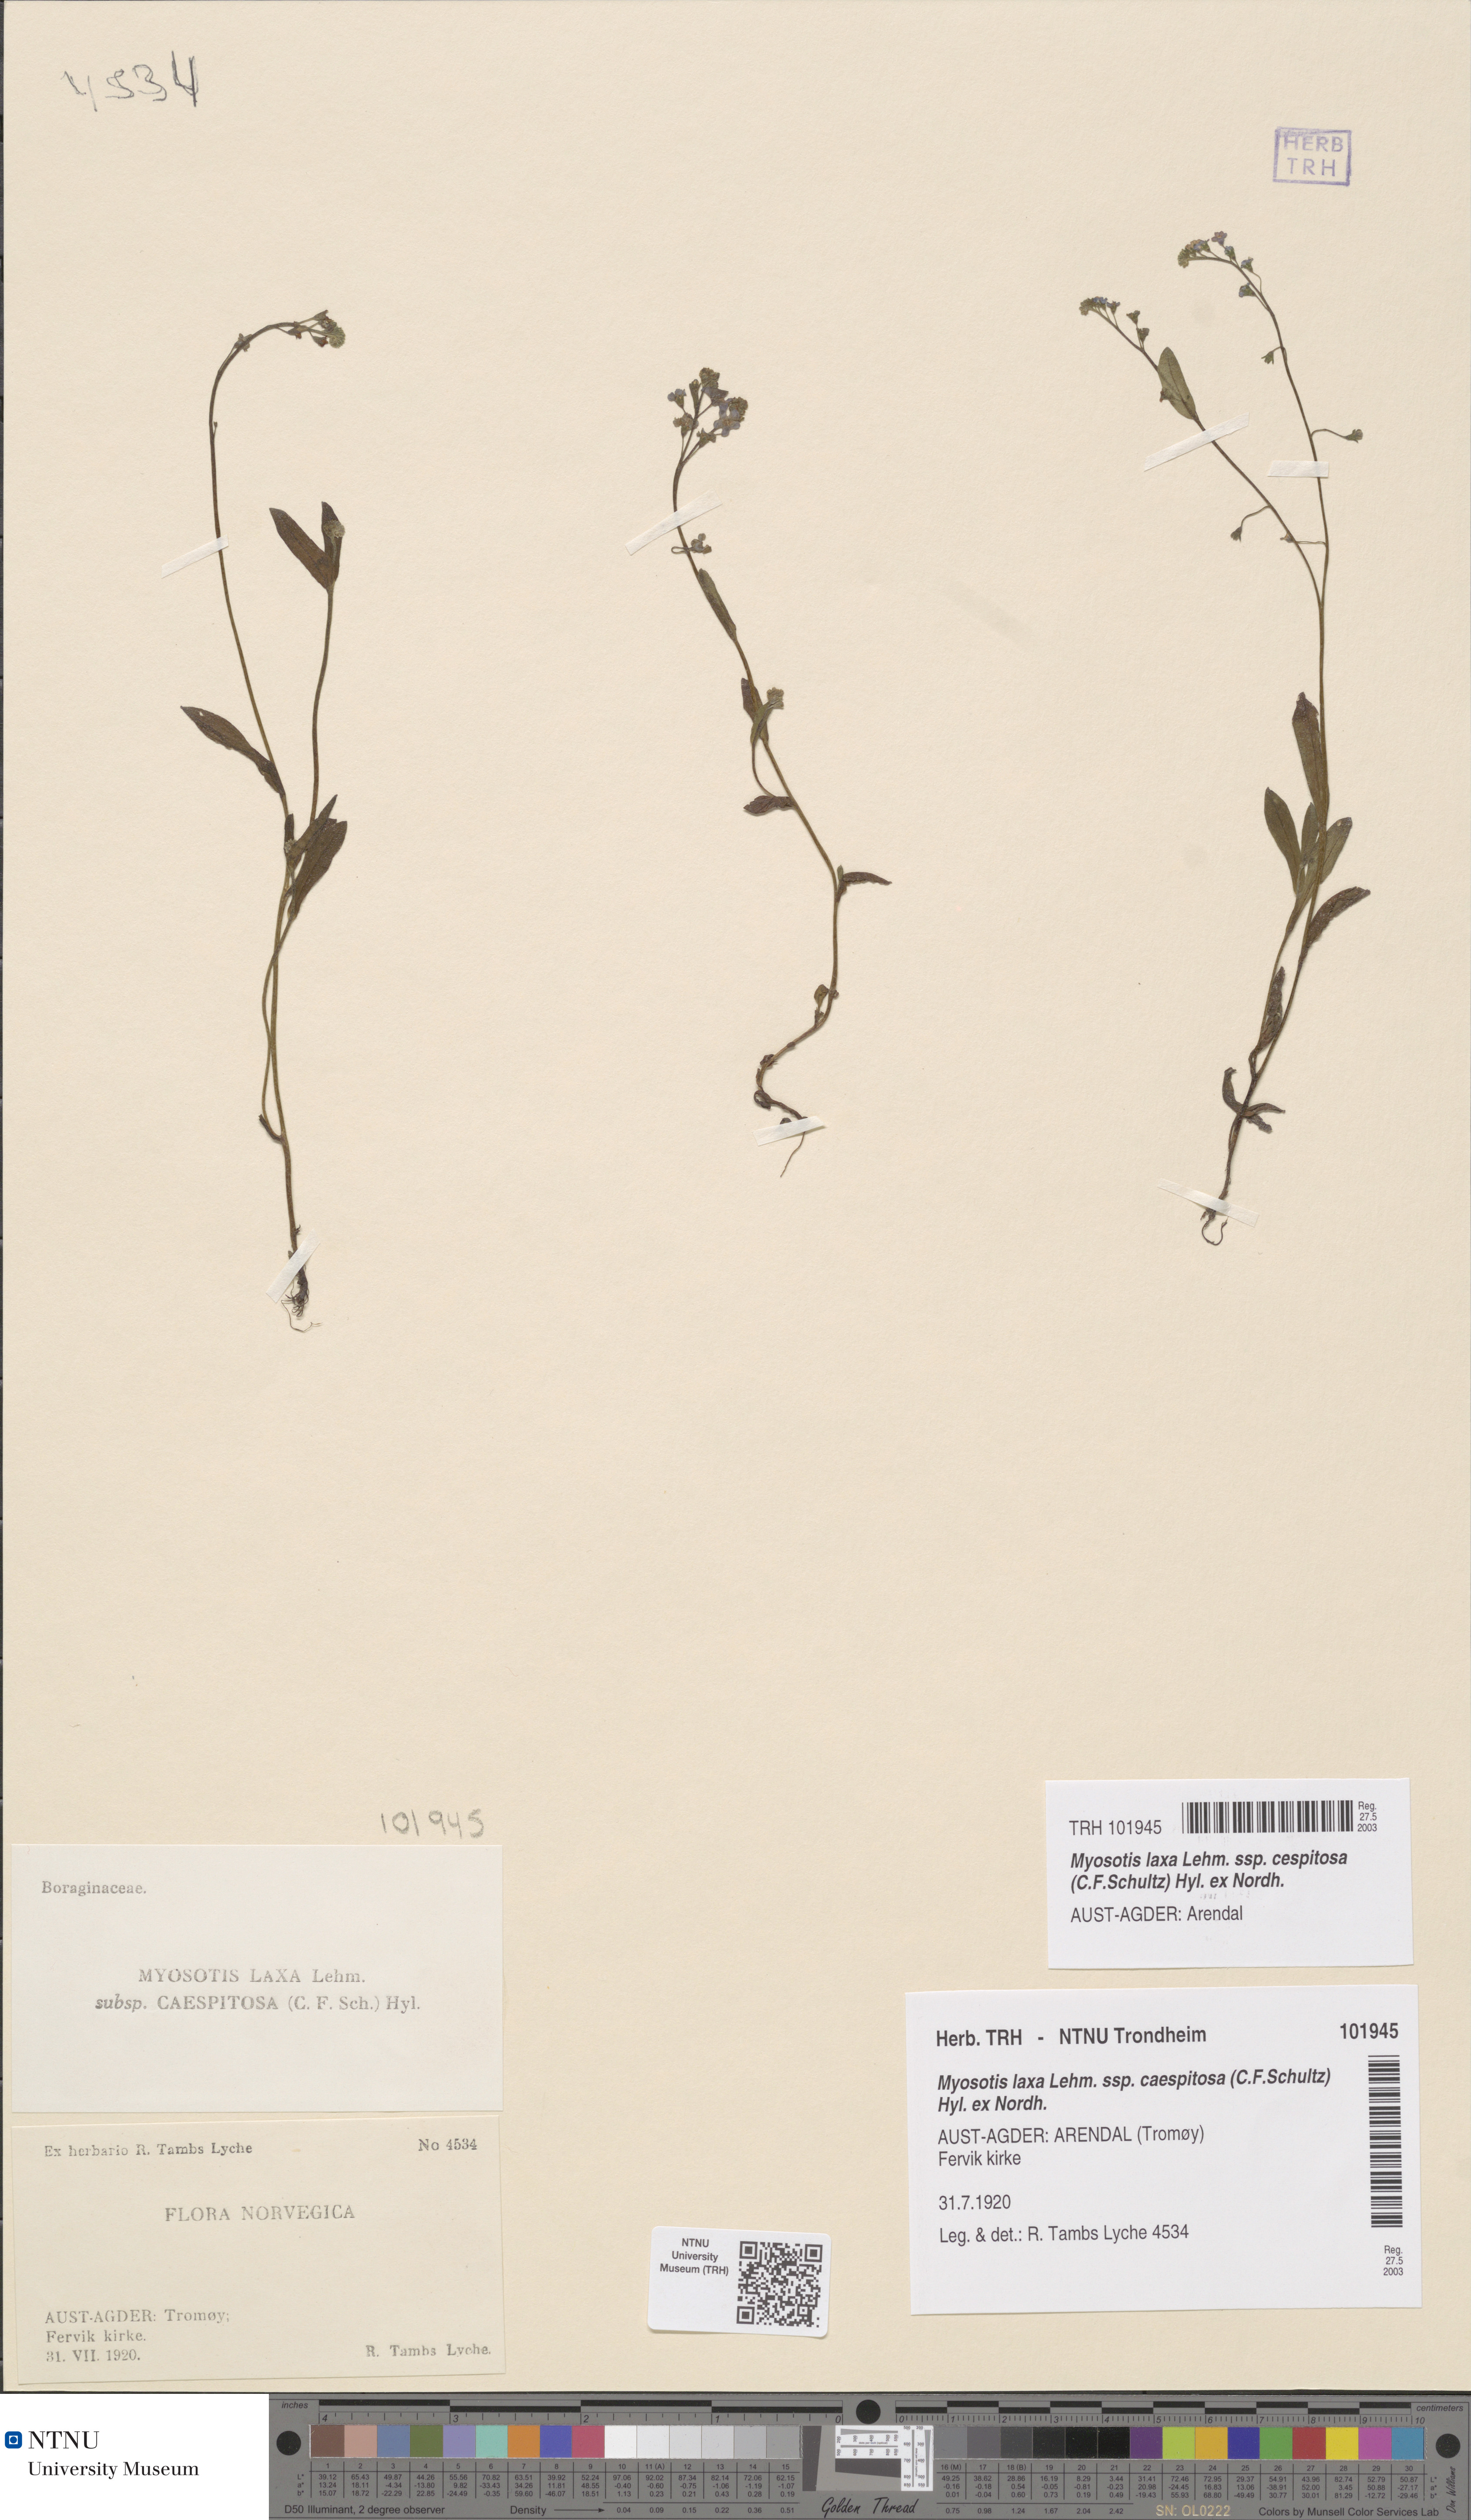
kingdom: Plantae
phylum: Tracheophyta
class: Magnoliopsida
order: Boraginales
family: Boraginaceae
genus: Myosotis
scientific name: Myosotis laxa
